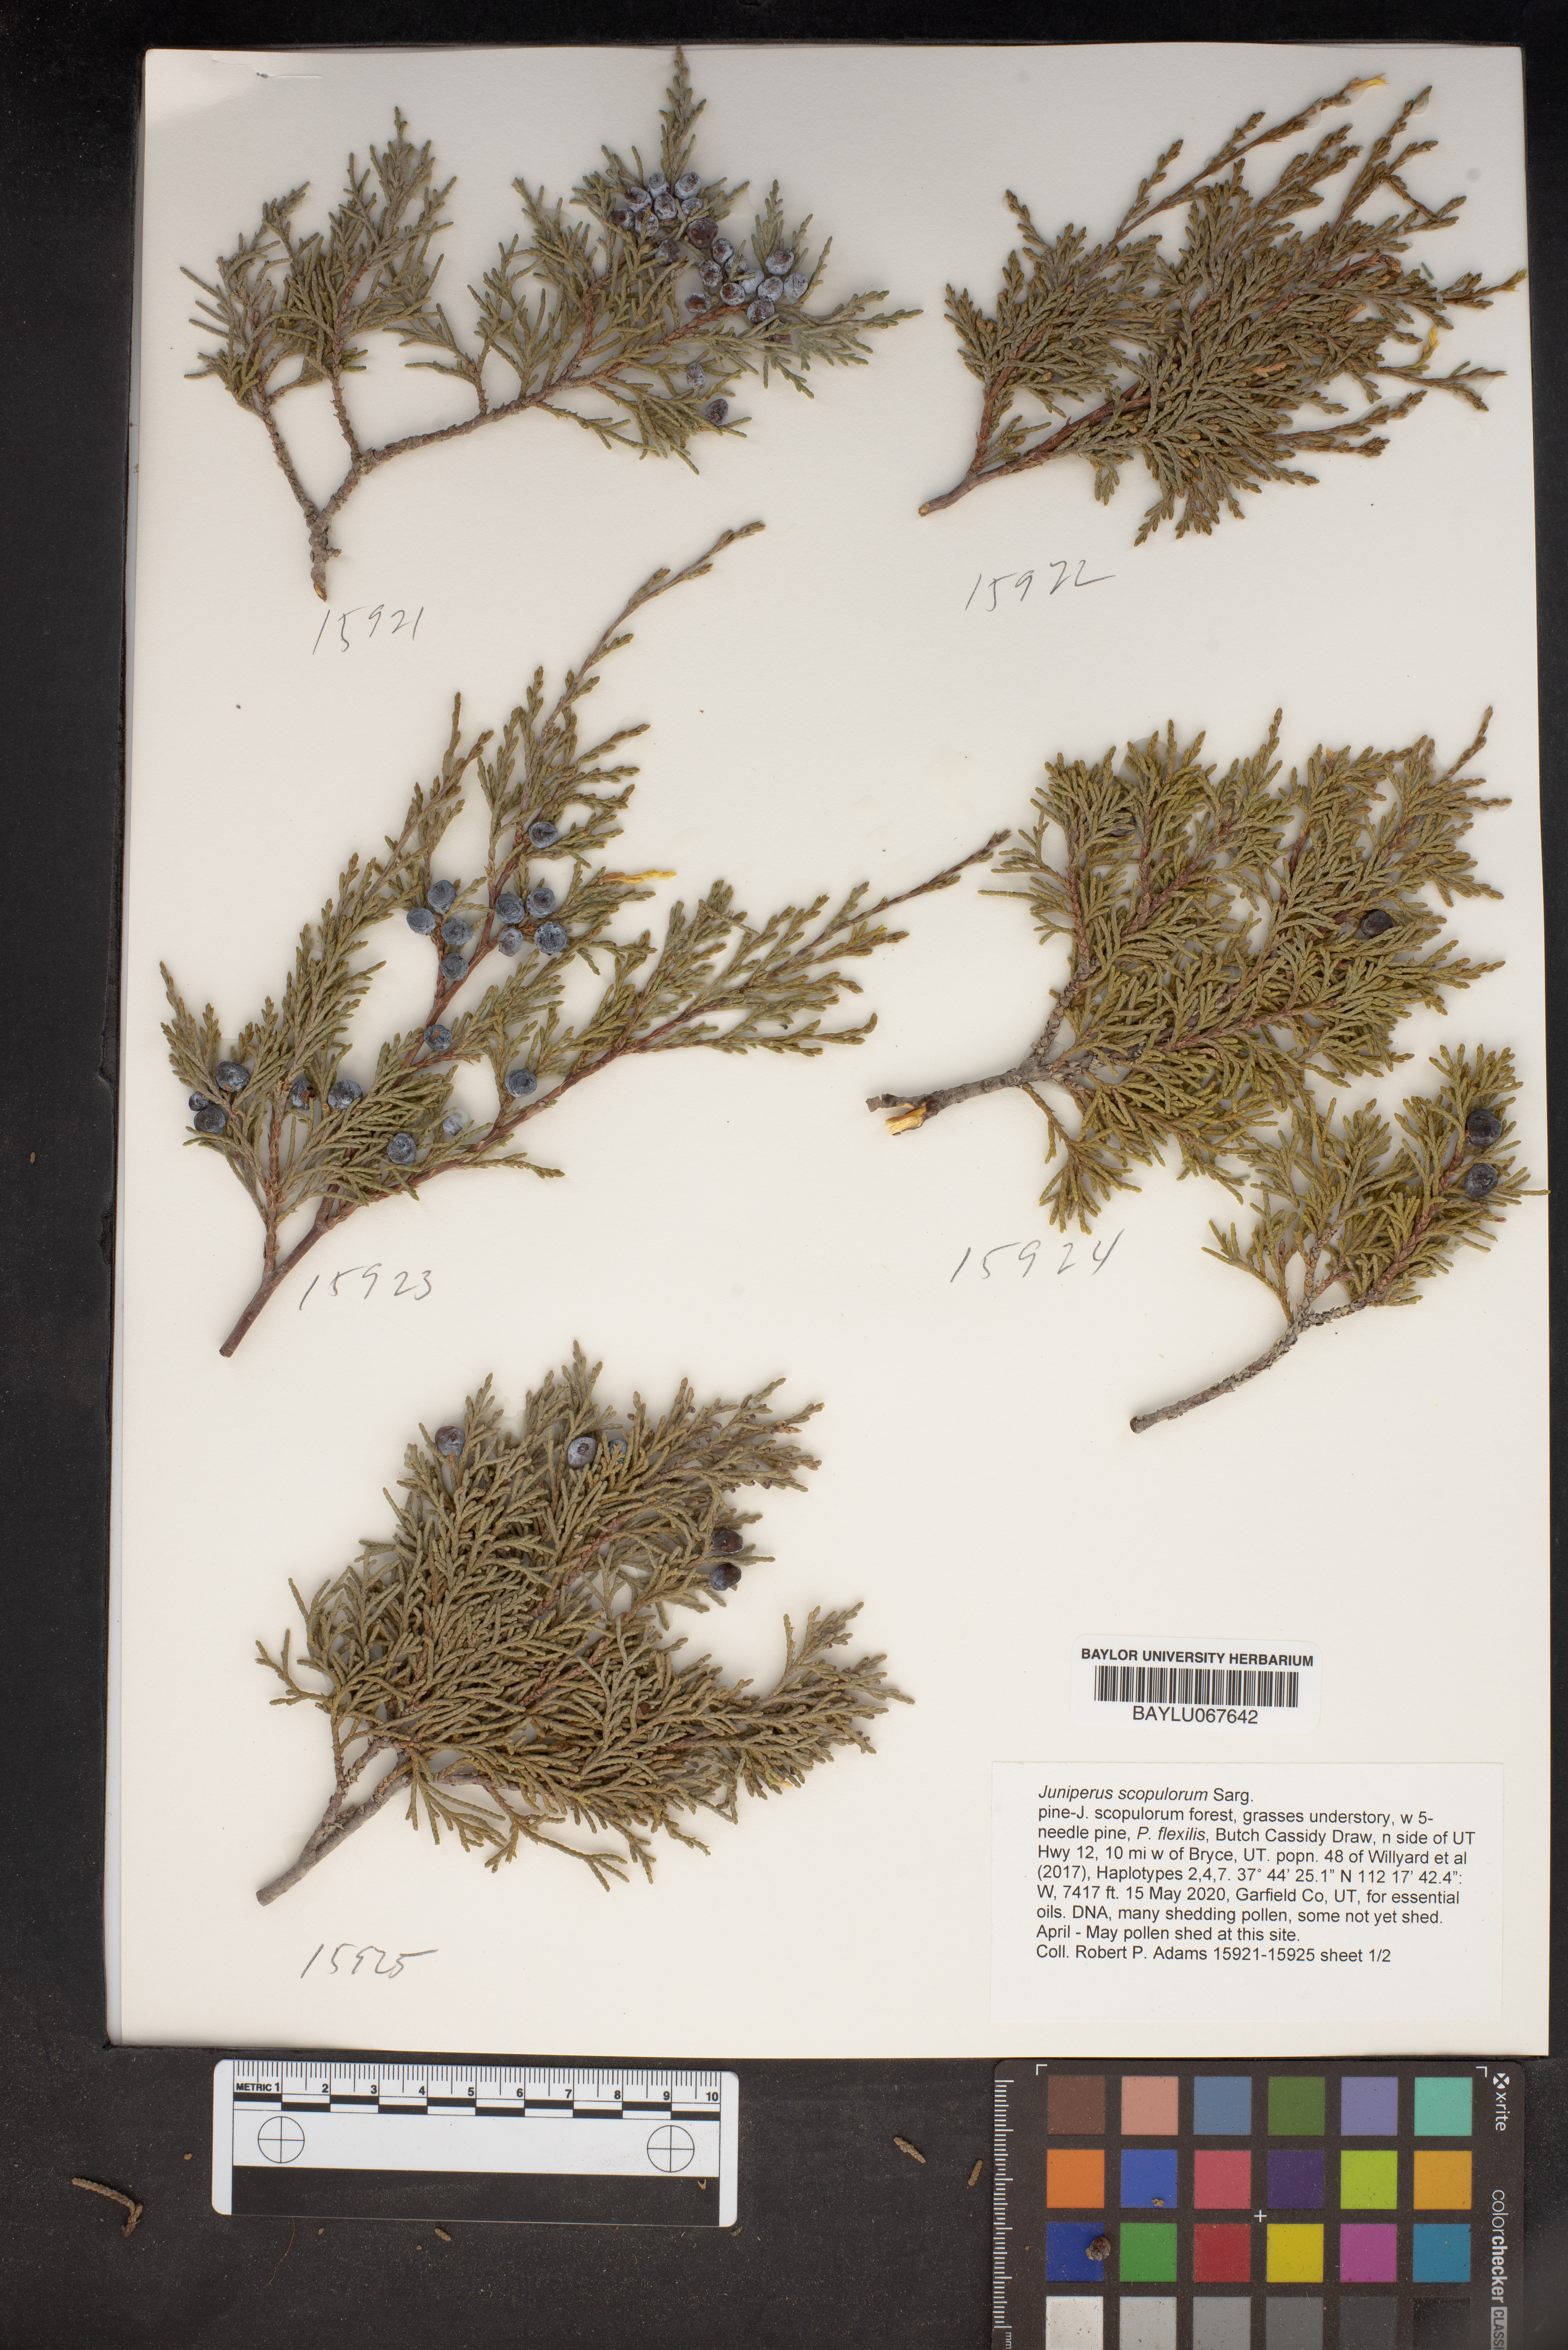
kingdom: Plantae
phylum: Tracheophyta
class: Pinopsida
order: Pinales
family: Cupressaceae
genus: Juniperus
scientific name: Juniperus scopulorum
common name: Rocky mountain juniper
